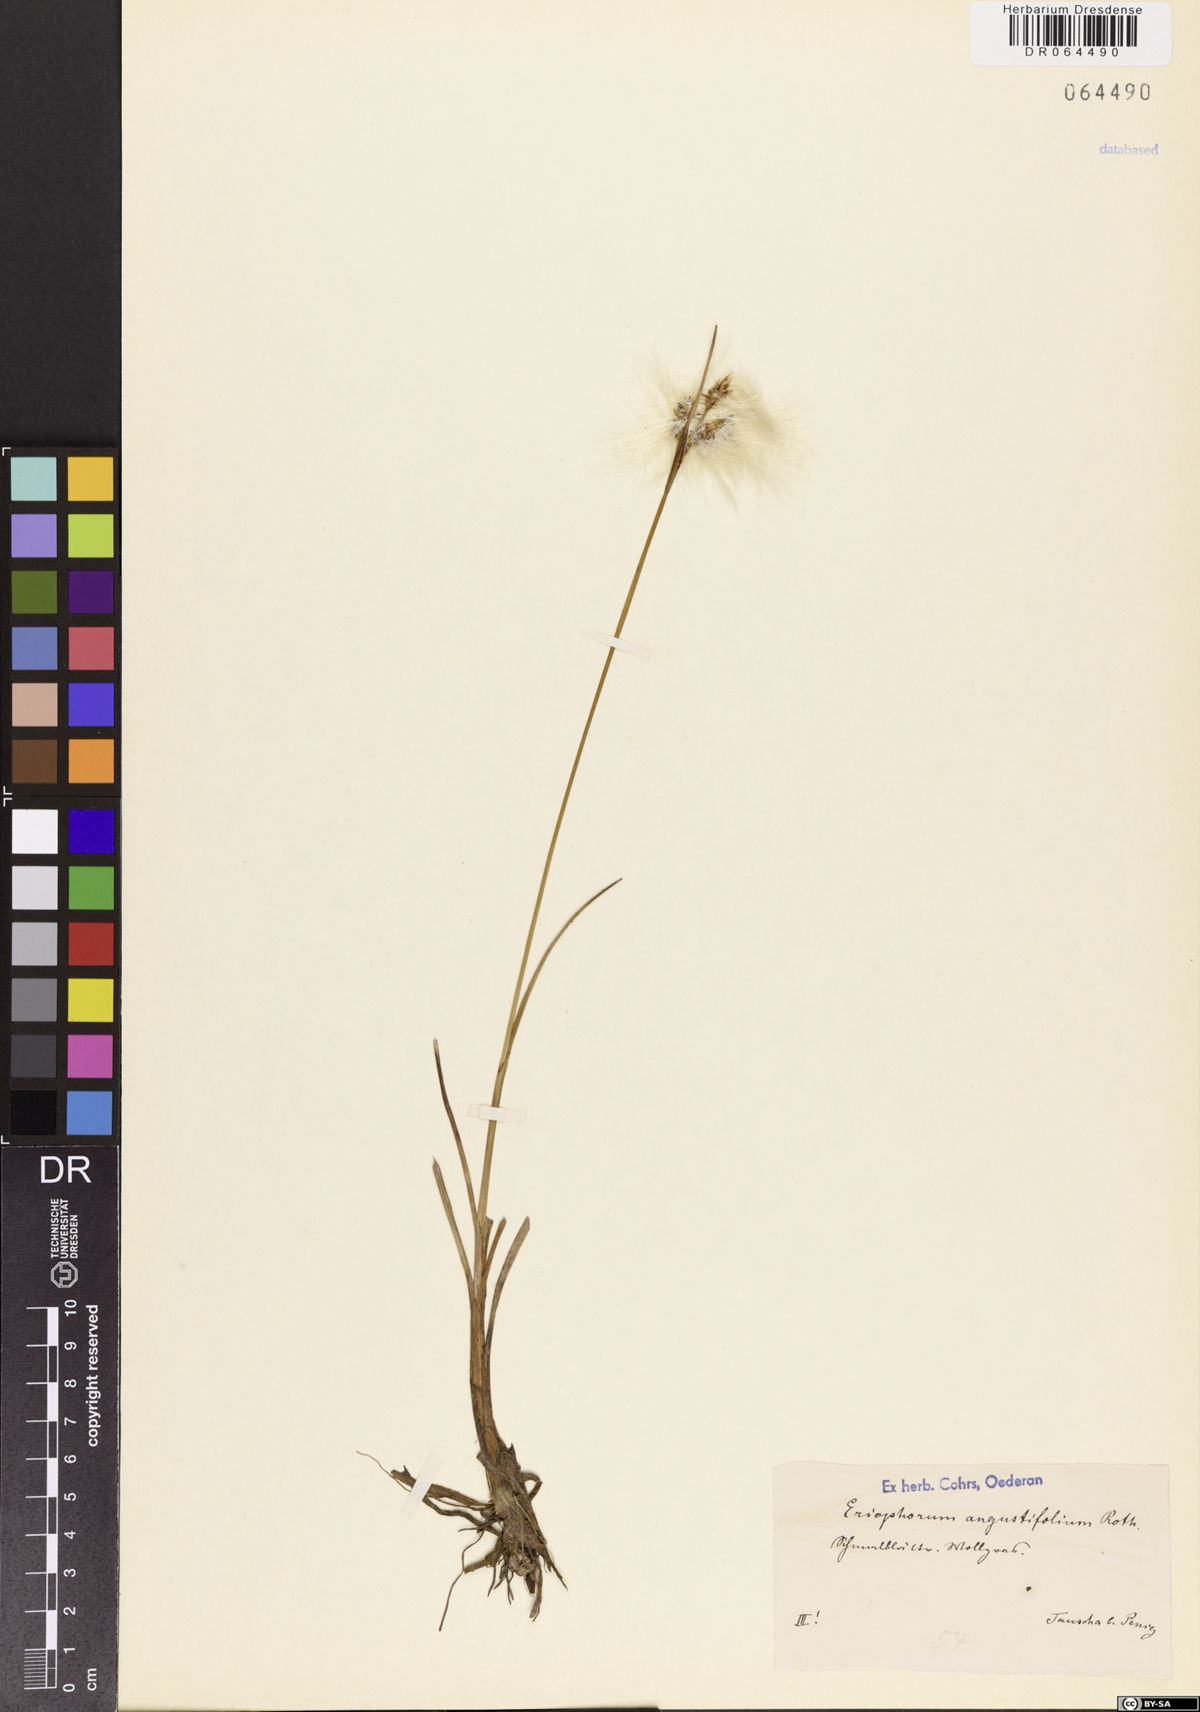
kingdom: Plantae
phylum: Tracheophyta
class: Liliopsida
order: Poales
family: Cyperaceae
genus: Eriophorum
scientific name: Eriophorum angustifolium
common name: Common cottongrass
